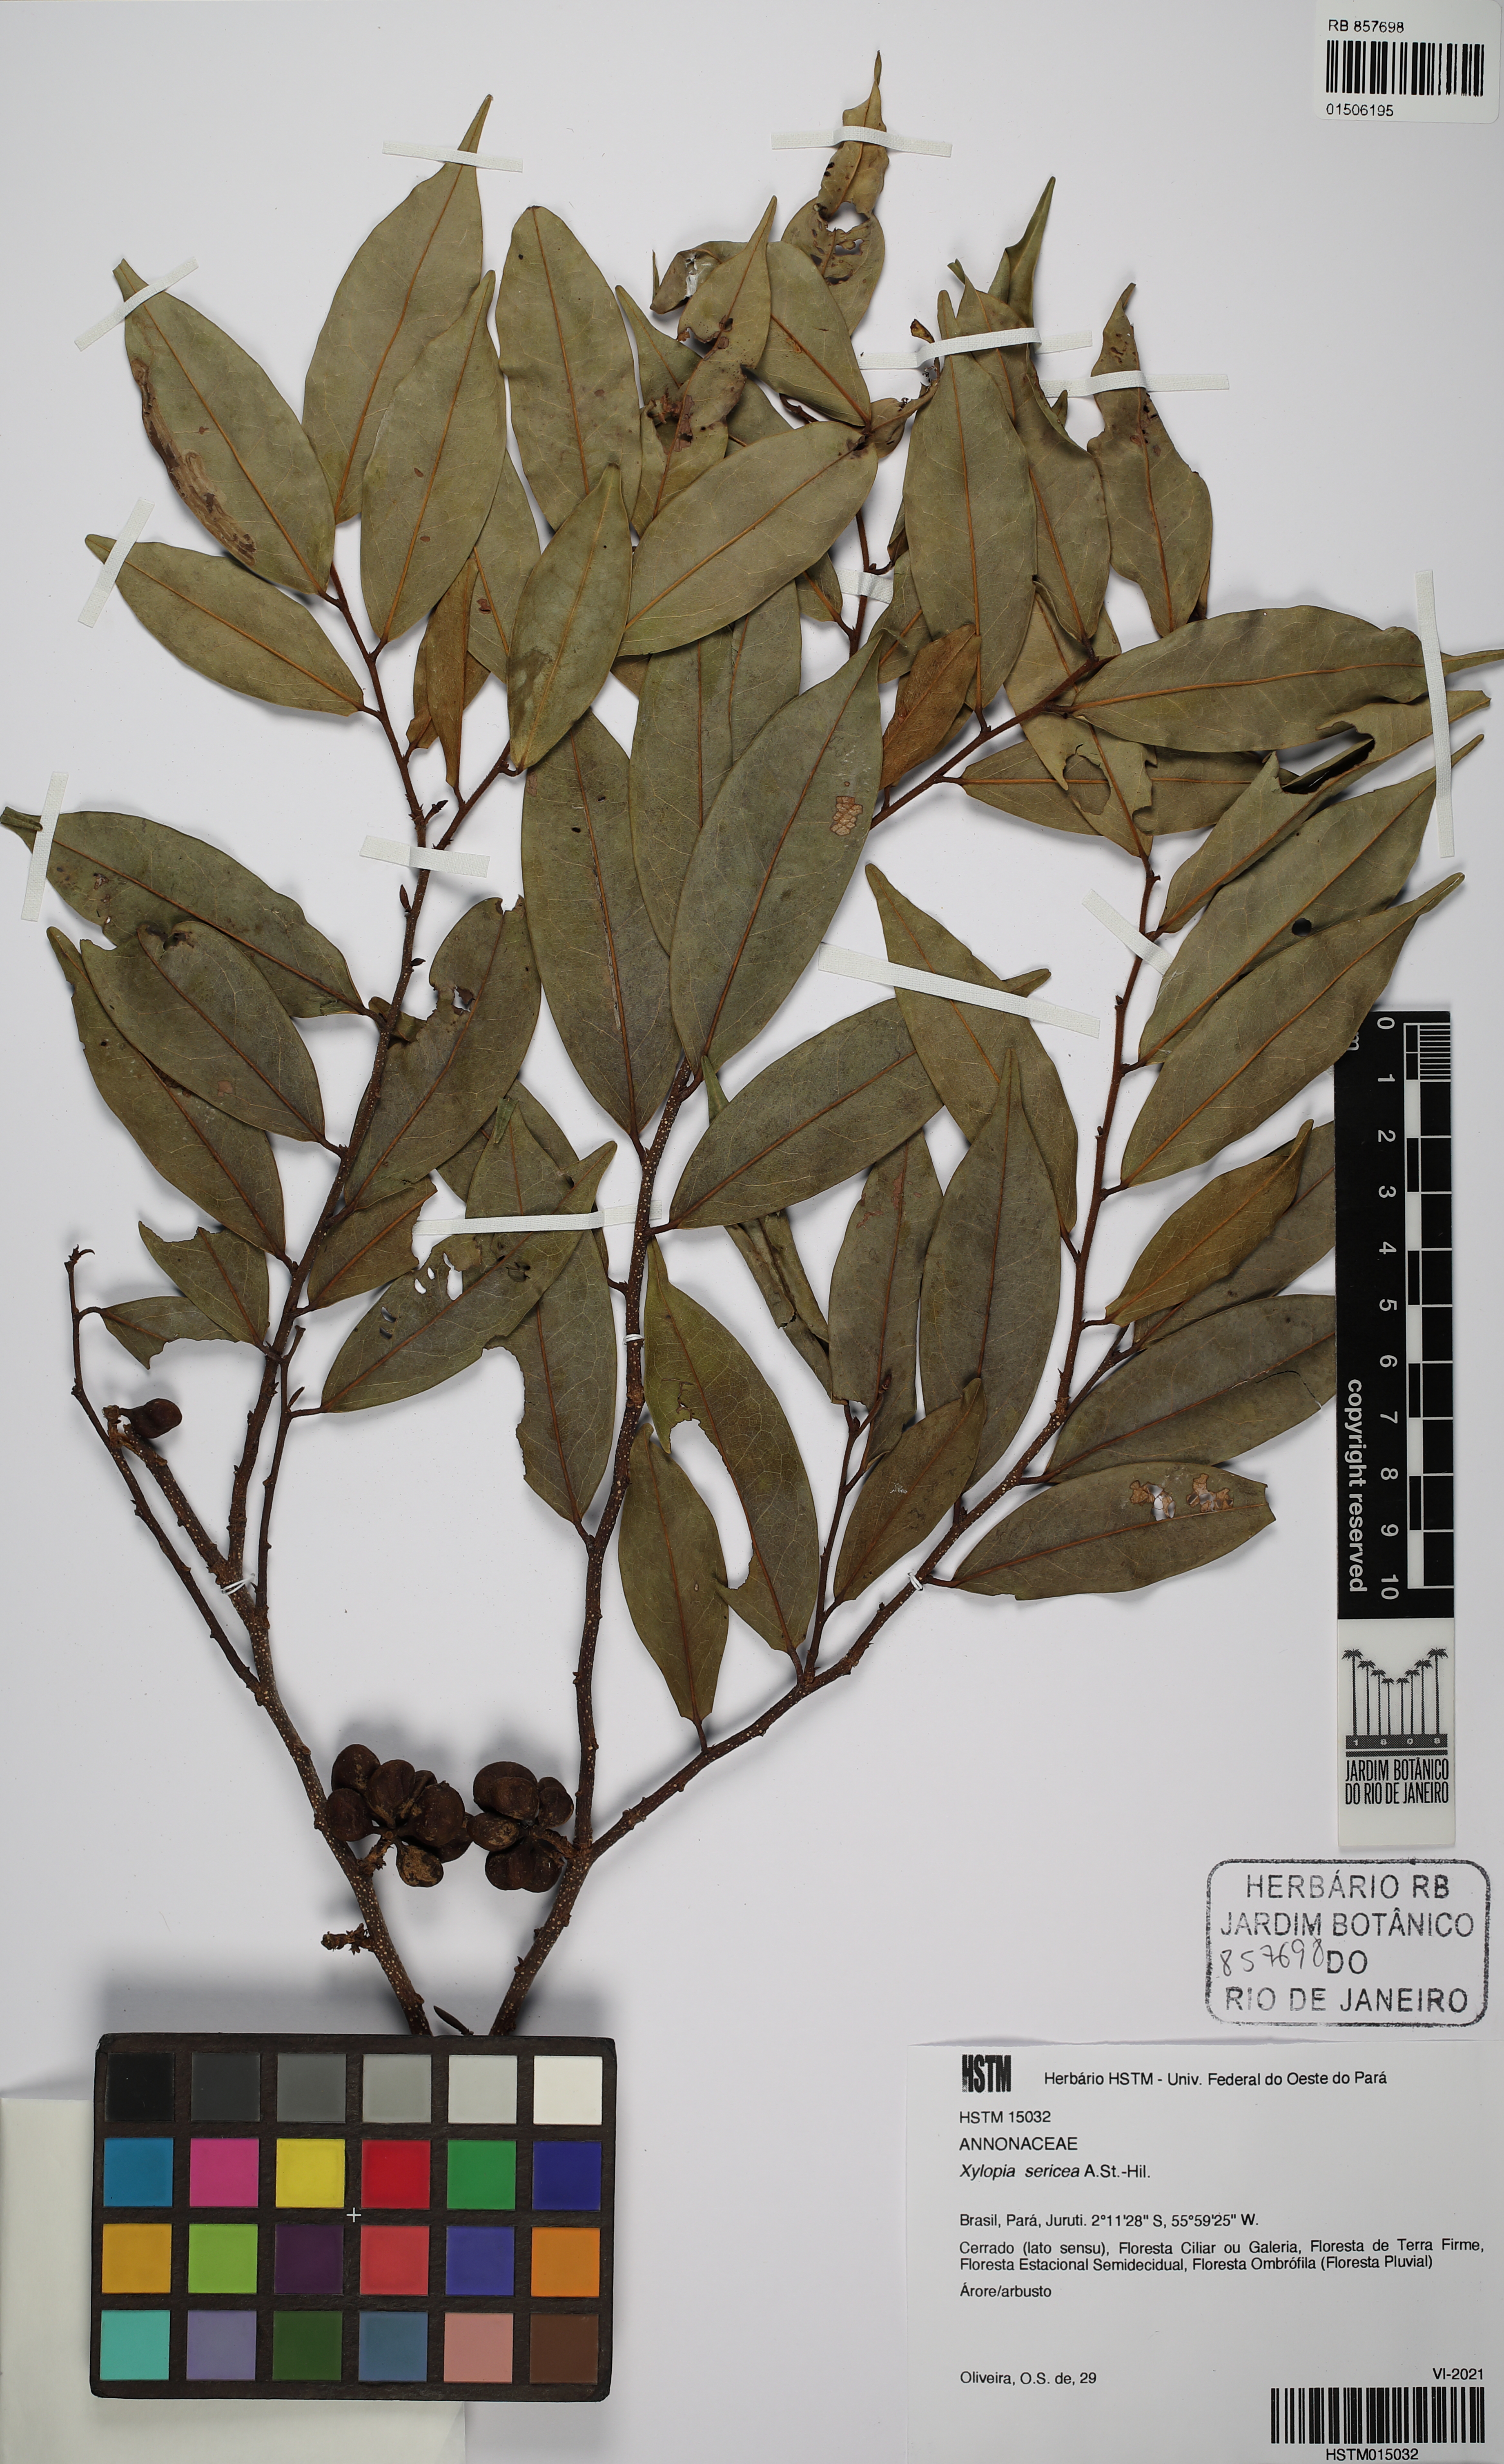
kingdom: Plantae
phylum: Tracheophyta
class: Magnoliopsida
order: Magnoliales
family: Annonaceae
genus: Xylopia
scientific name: Xylopia sericea
